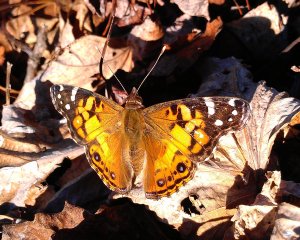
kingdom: Animalia
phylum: Arthropoda
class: Insecta
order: Lepidoptera
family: Nymphalidae
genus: Vanessa
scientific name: Vanessa virginiensis
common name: American Lady
